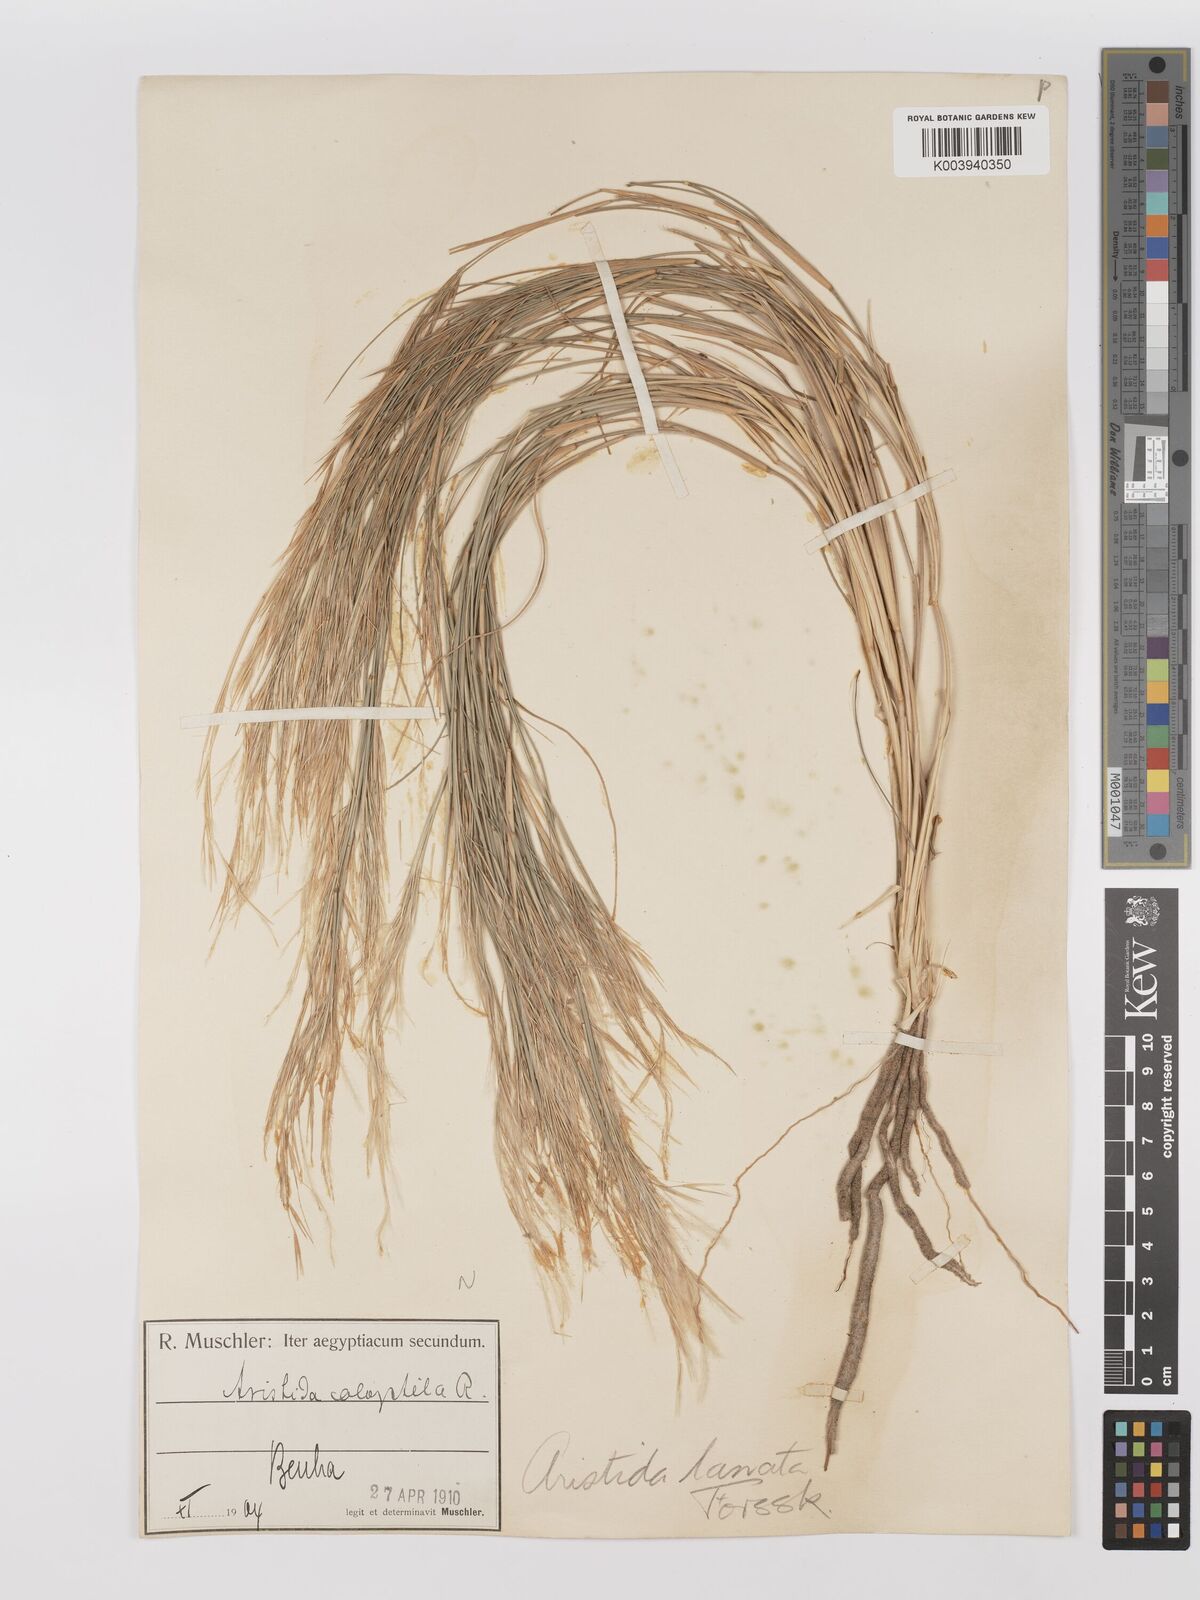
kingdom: Plantae
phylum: Tracheophyta
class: Liliopsida
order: Poales
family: Poaceae
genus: Stipagrostis
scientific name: Stipagrostis lanata
